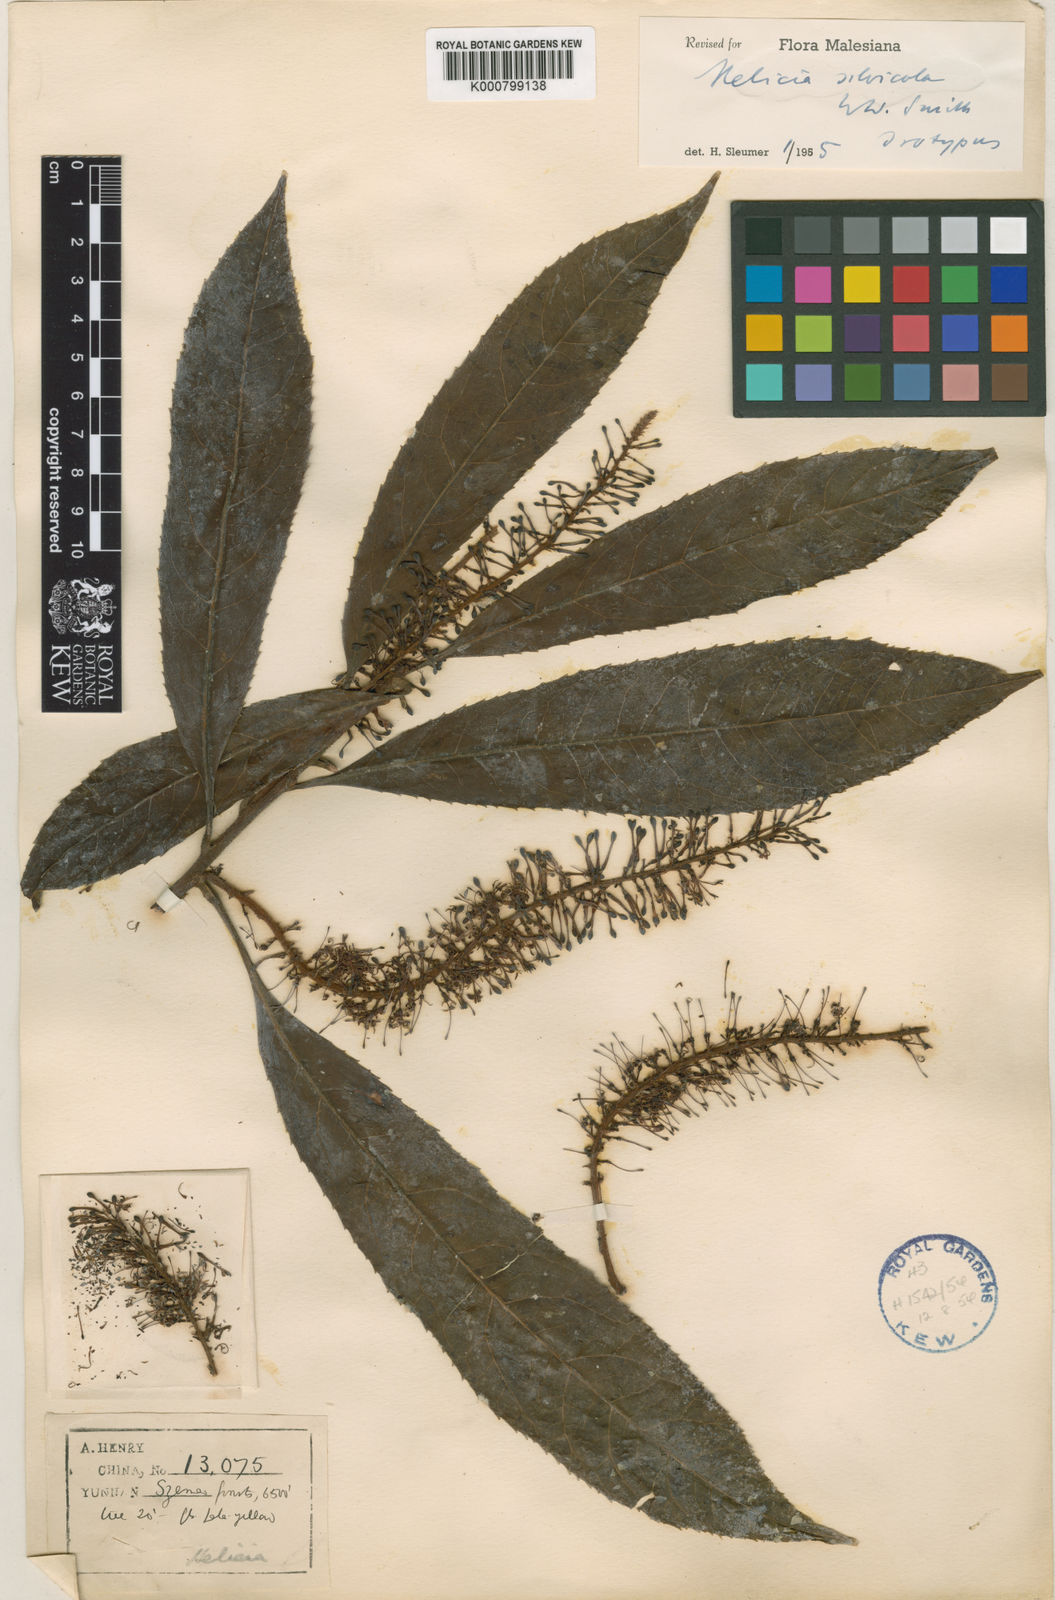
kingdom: Plantae
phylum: Tracheophyta
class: Magnoliopsida
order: Proteales
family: Proteaceae
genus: Helicia
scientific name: Helicia silvicola
